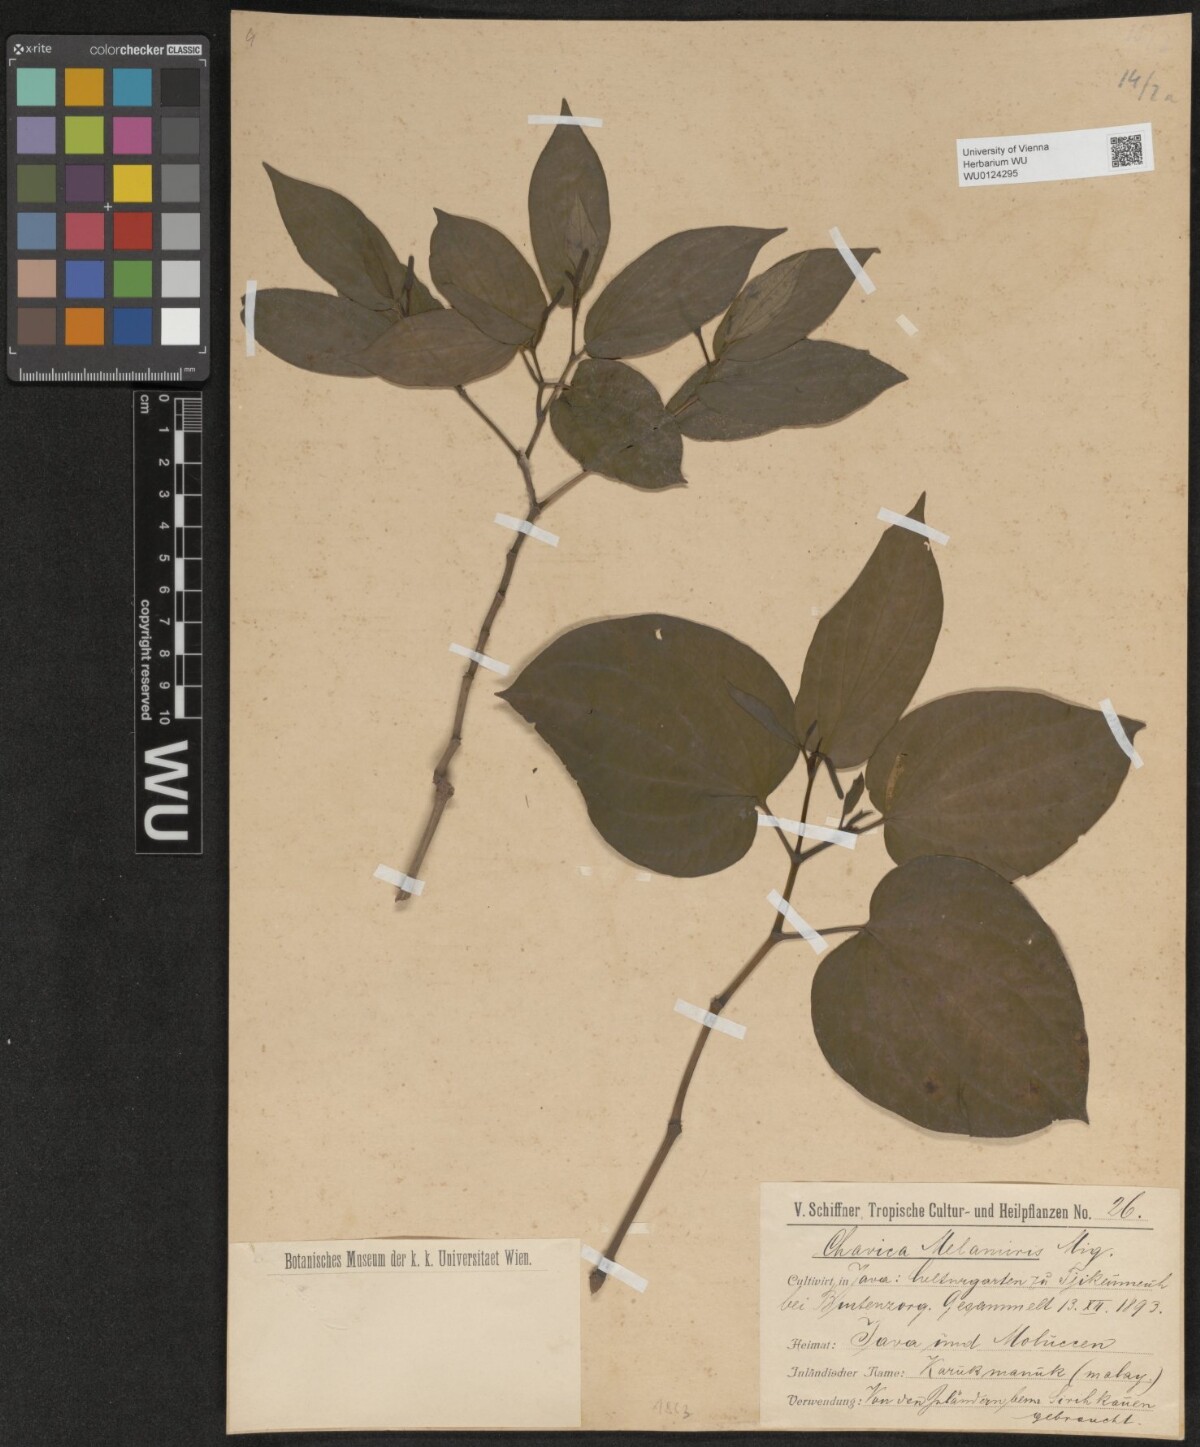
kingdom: Plantae
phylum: Tracheophyta
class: Magnoliopsida
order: Piperales
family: Piperaceae
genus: Piper
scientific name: Piper attenuatum
